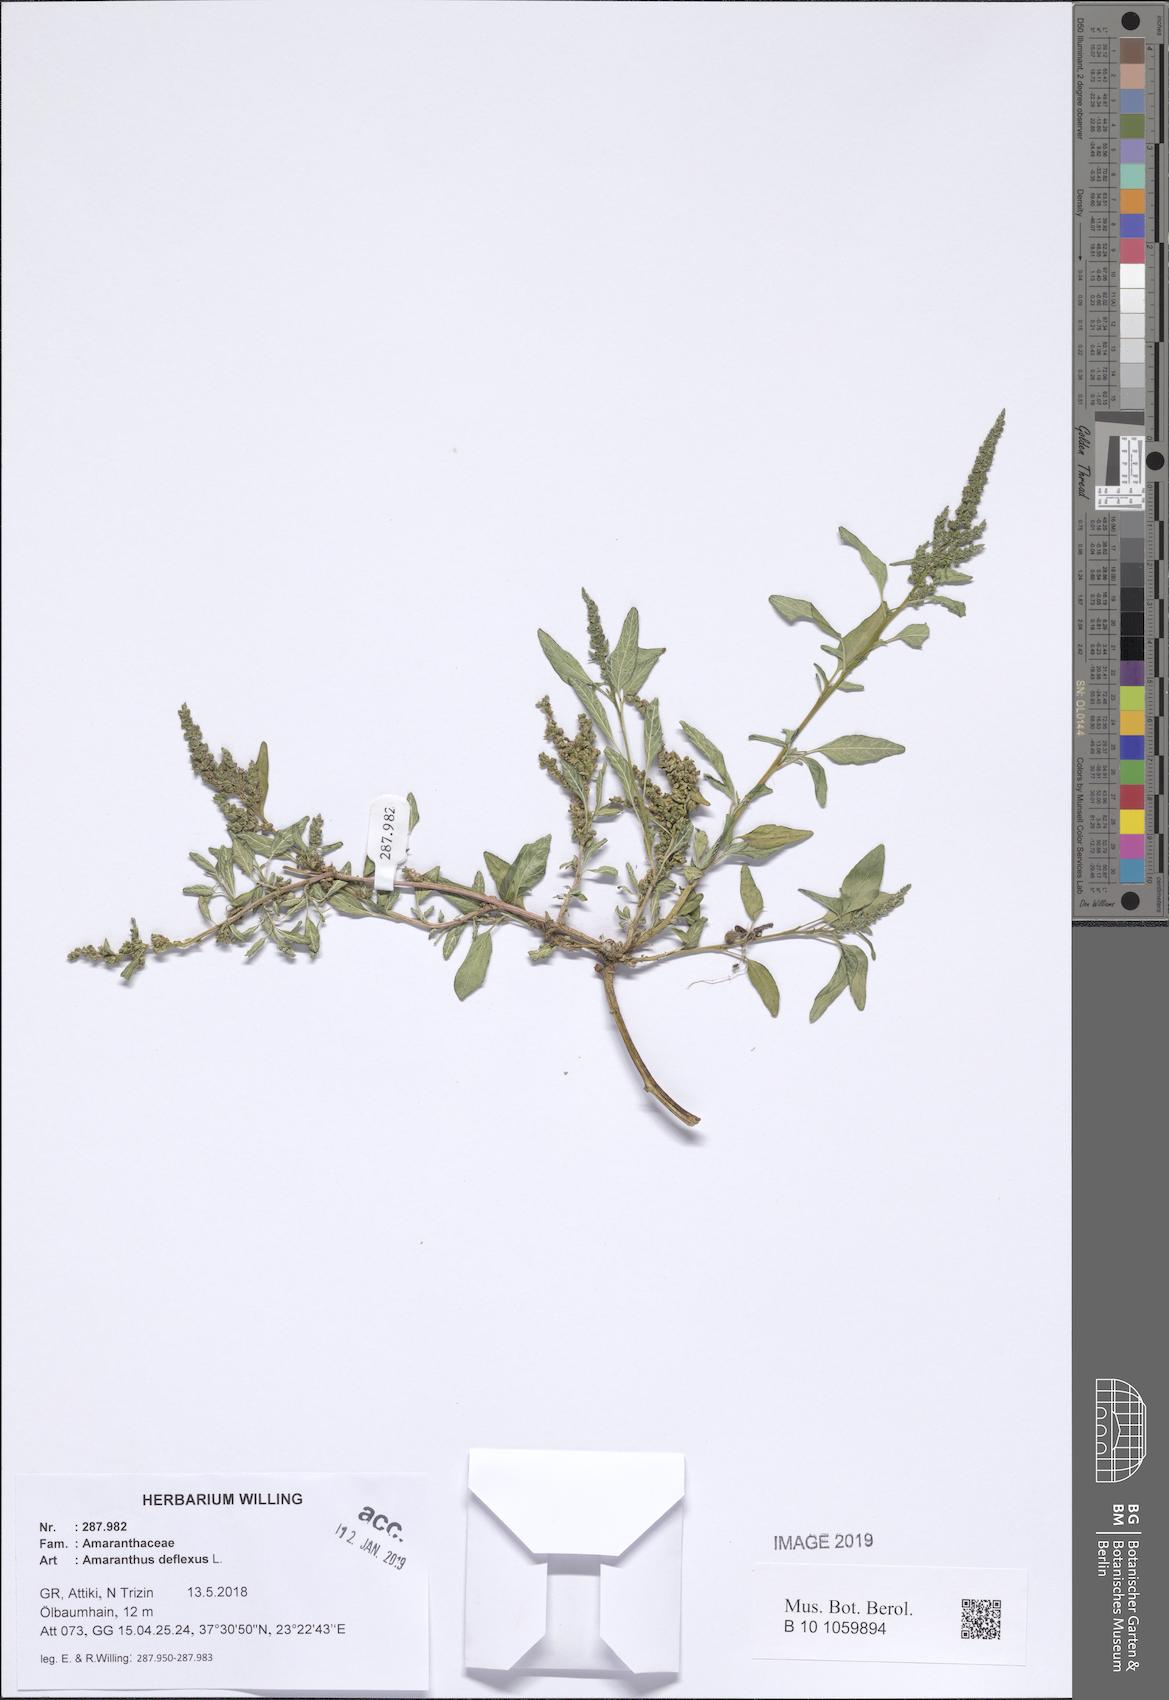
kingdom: Plantae
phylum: Tracheophyta
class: Magnoliopsida
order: Caryophyllales
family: Amaranthaceae
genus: Amaranthus
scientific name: Amaranthus deflexus
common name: Perennial pigweed
